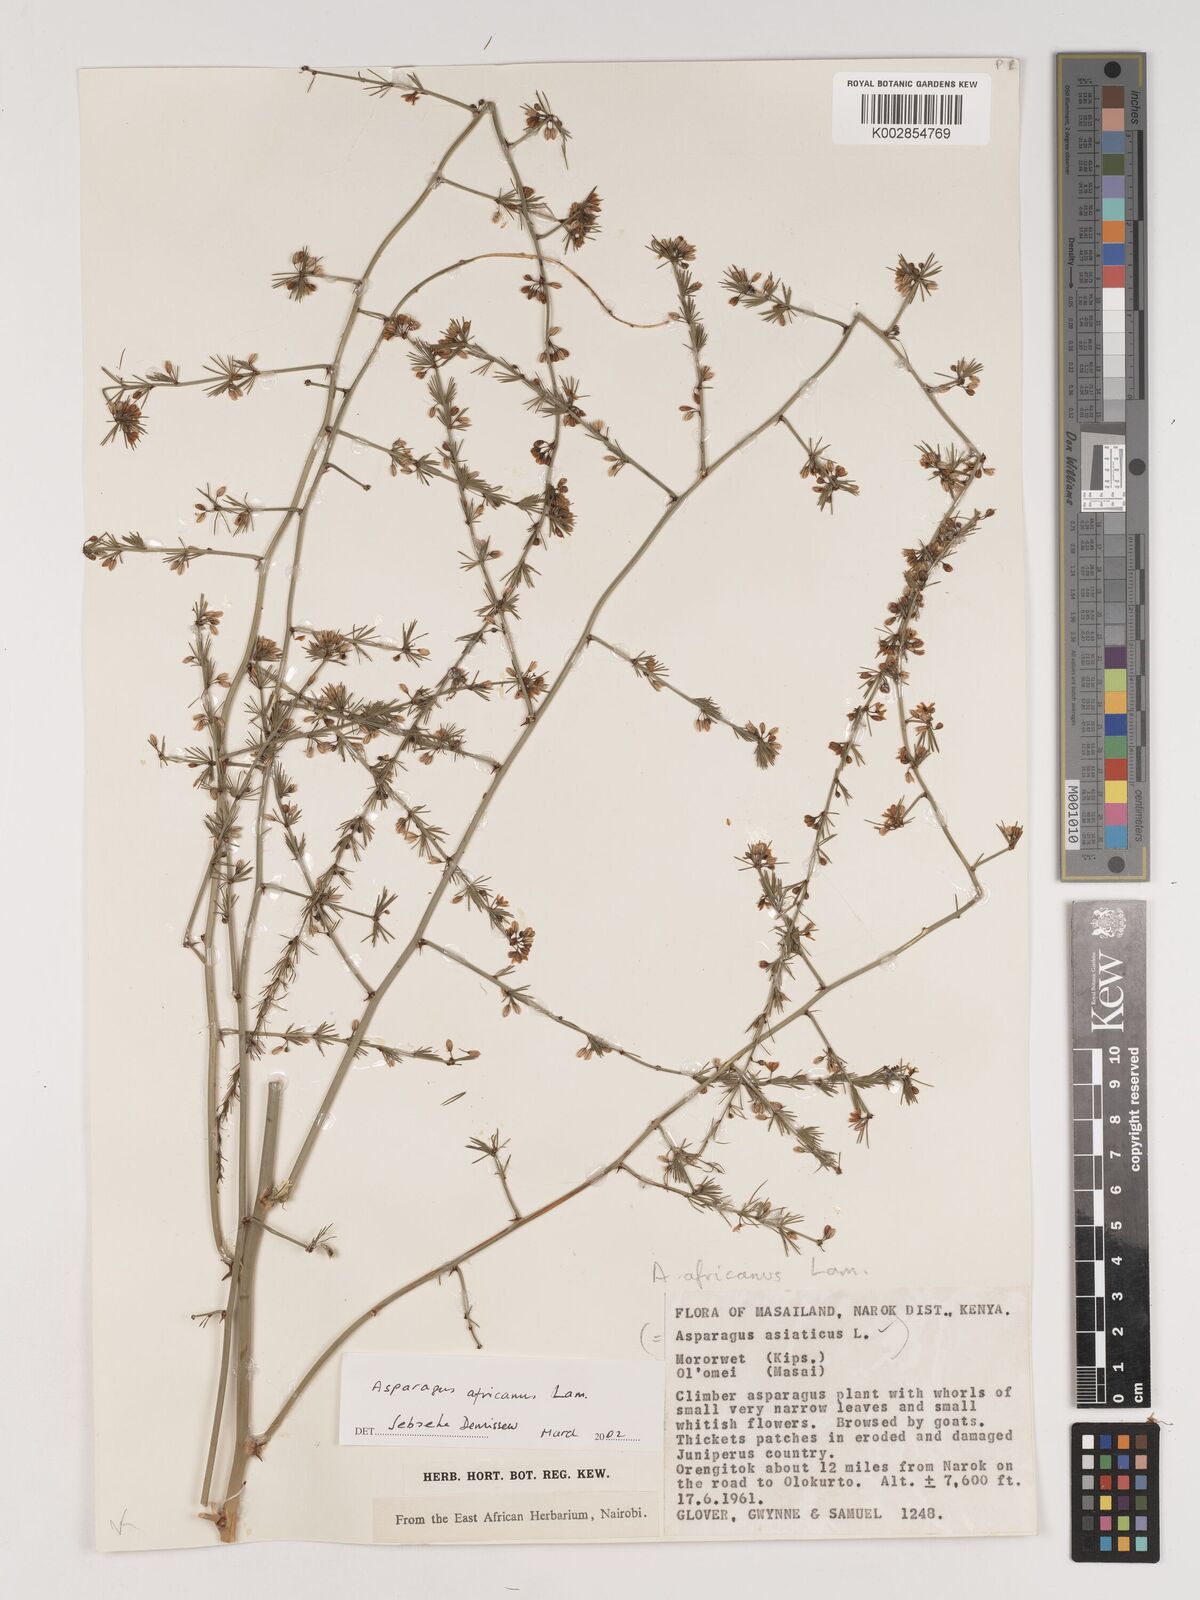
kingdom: Plantae
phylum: Tracheophyta
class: Liliopsida
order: Asparagales
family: Asparagaceae
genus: Asparagus
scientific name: Asparagus africanus
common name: Asparagus-fern
